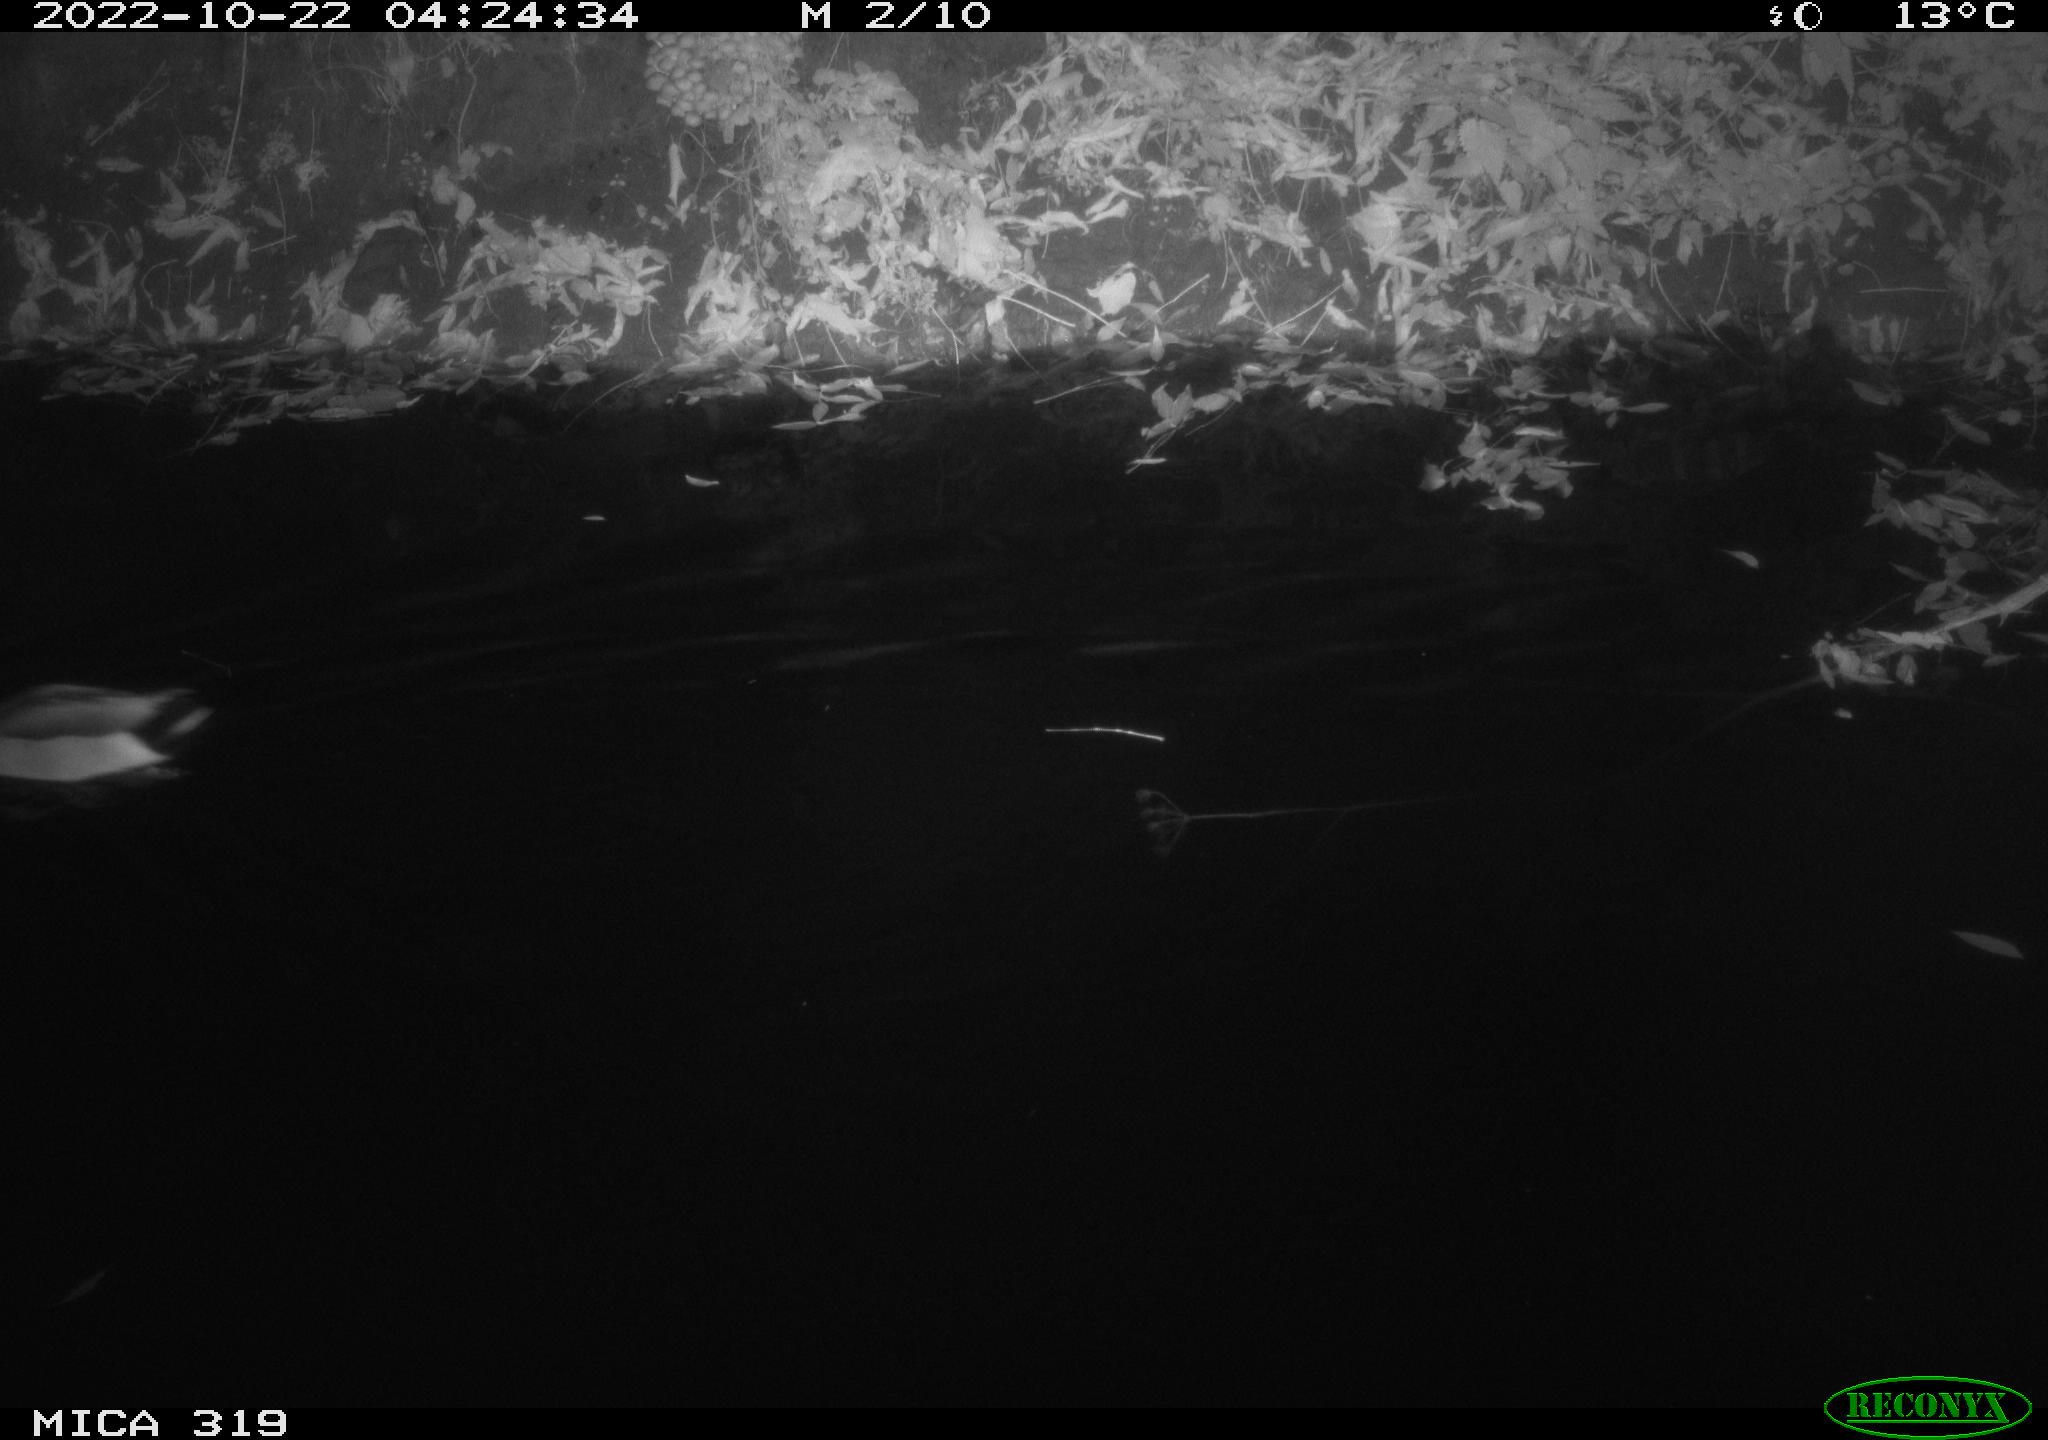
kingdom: Animalia
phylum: Chordata
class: Aves
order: Anseriformes
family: Anatidae
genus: Anas
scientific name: Anas
